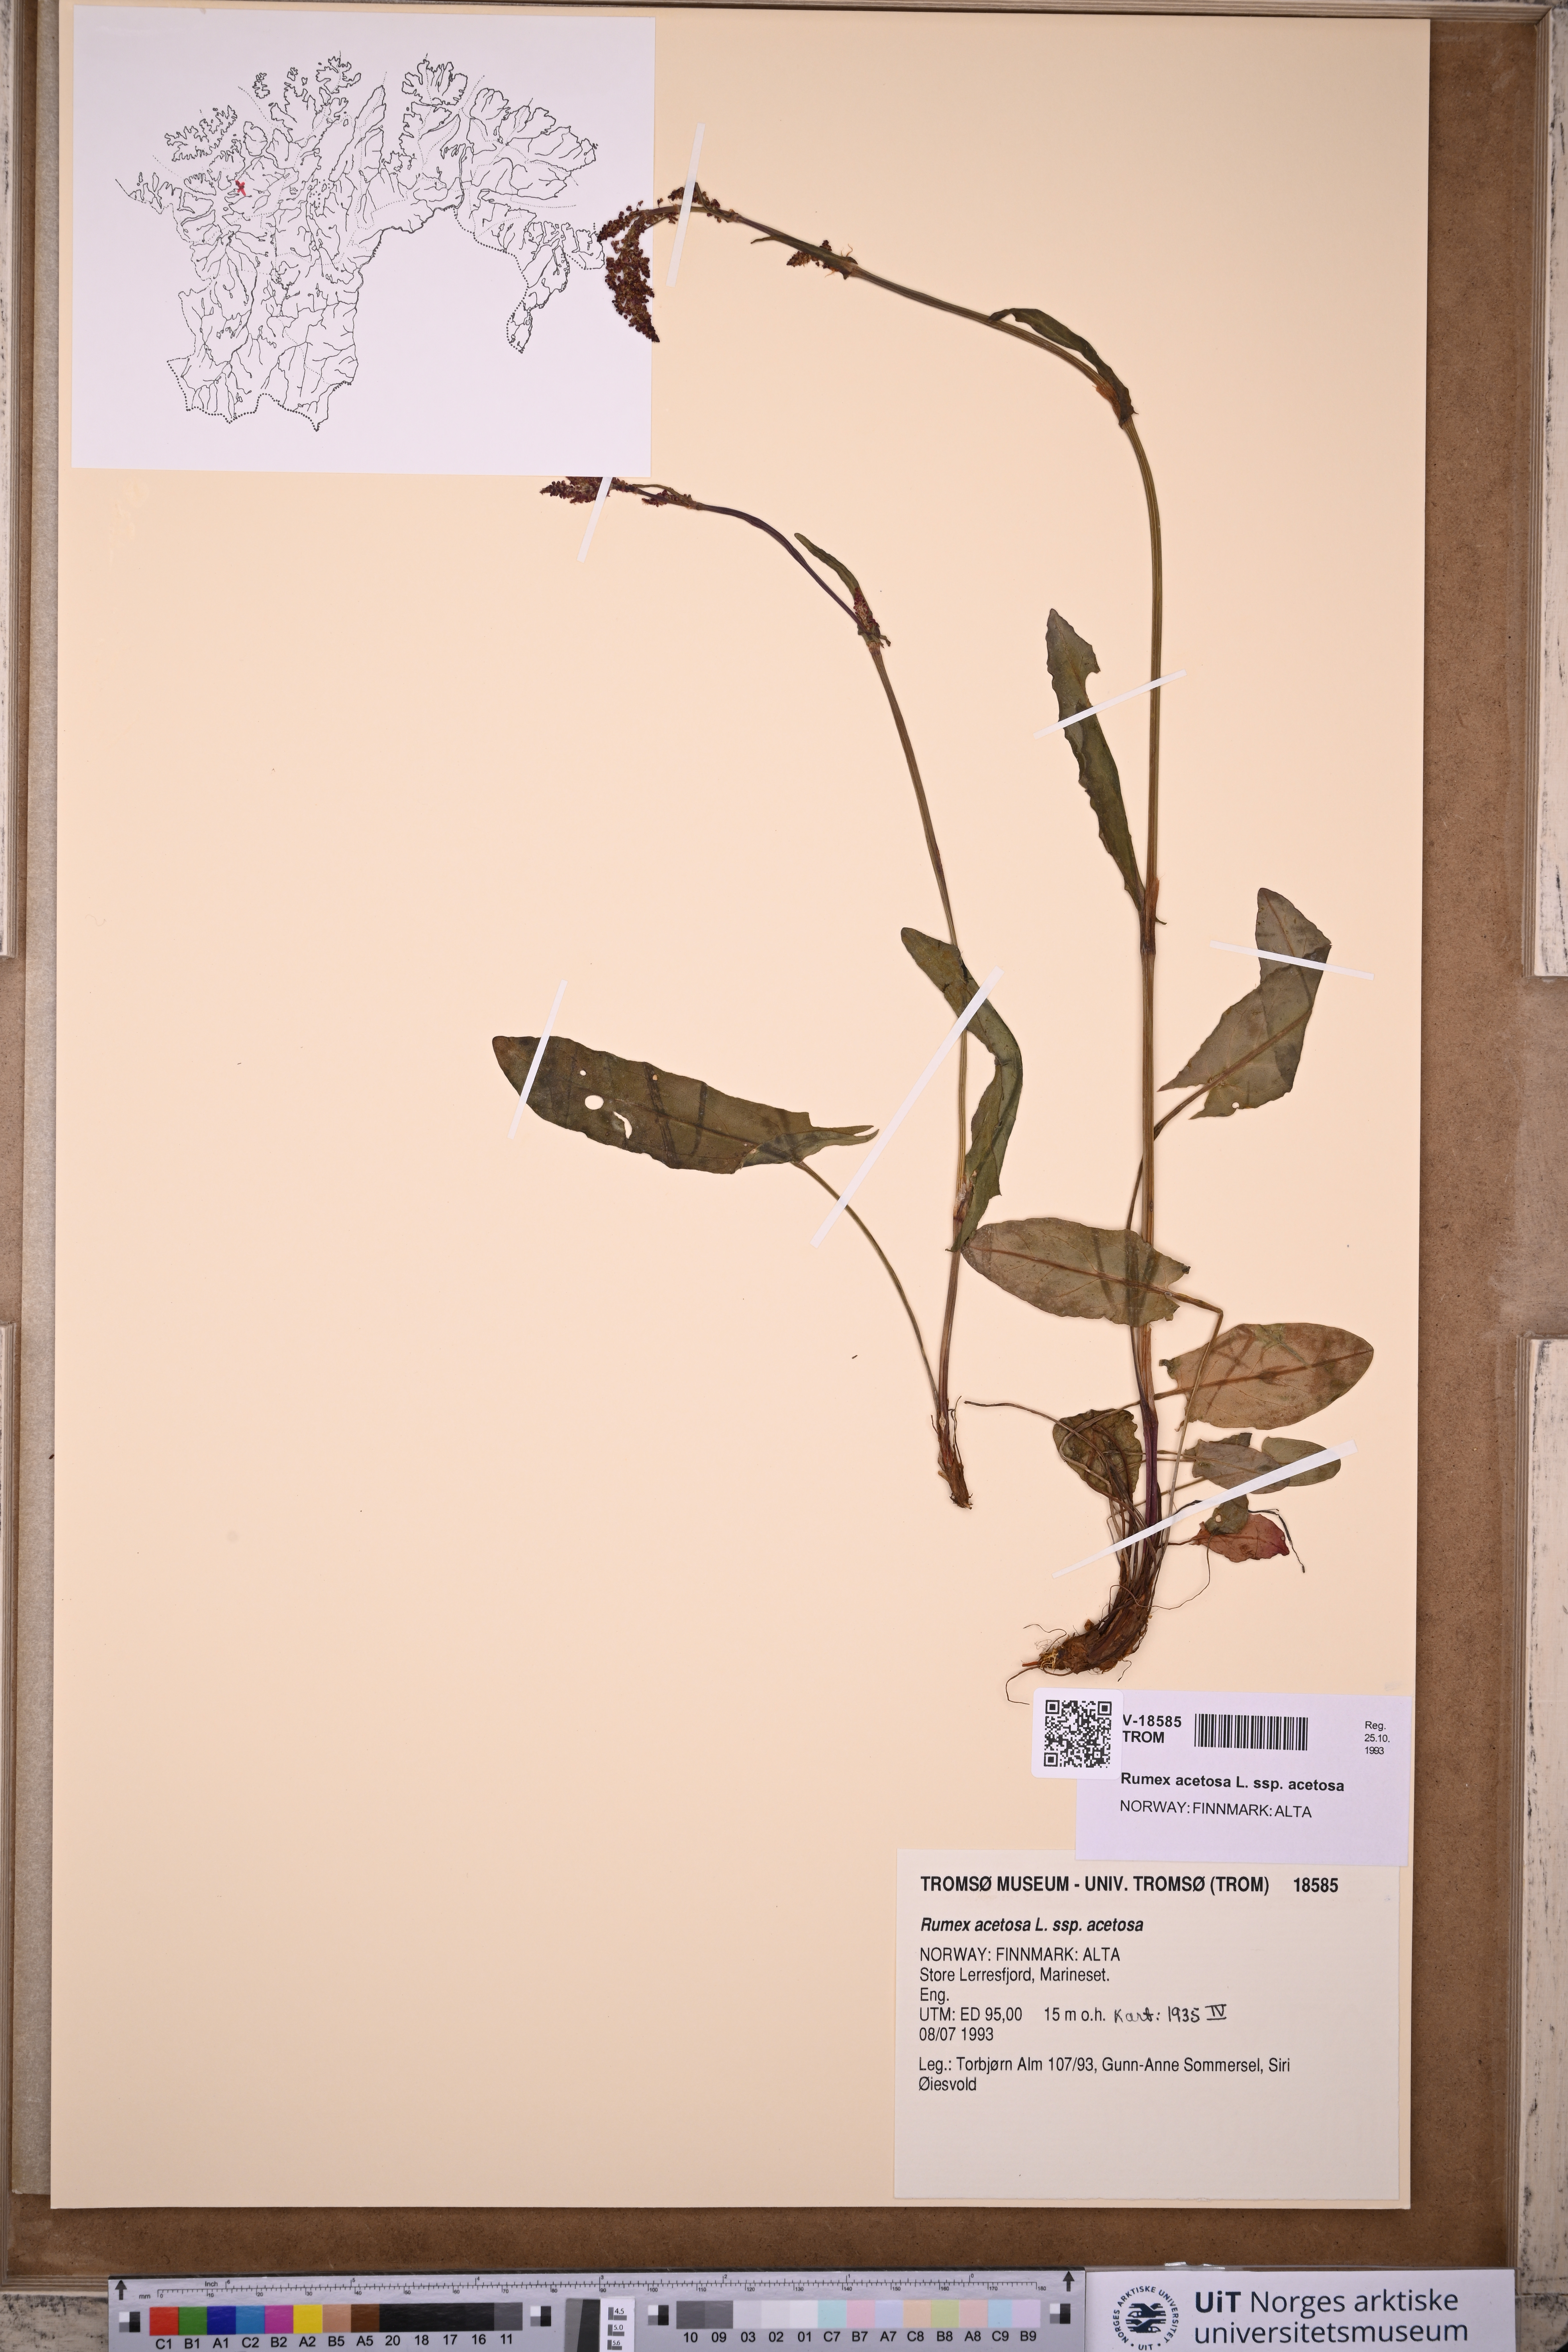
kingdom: Plantae
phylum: Tracheophyta
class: Magnoliopsida
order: Caryophyllales
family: Polygonaceae
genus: Rumex
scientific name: Rumex acetosa
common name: Garden sorrel
